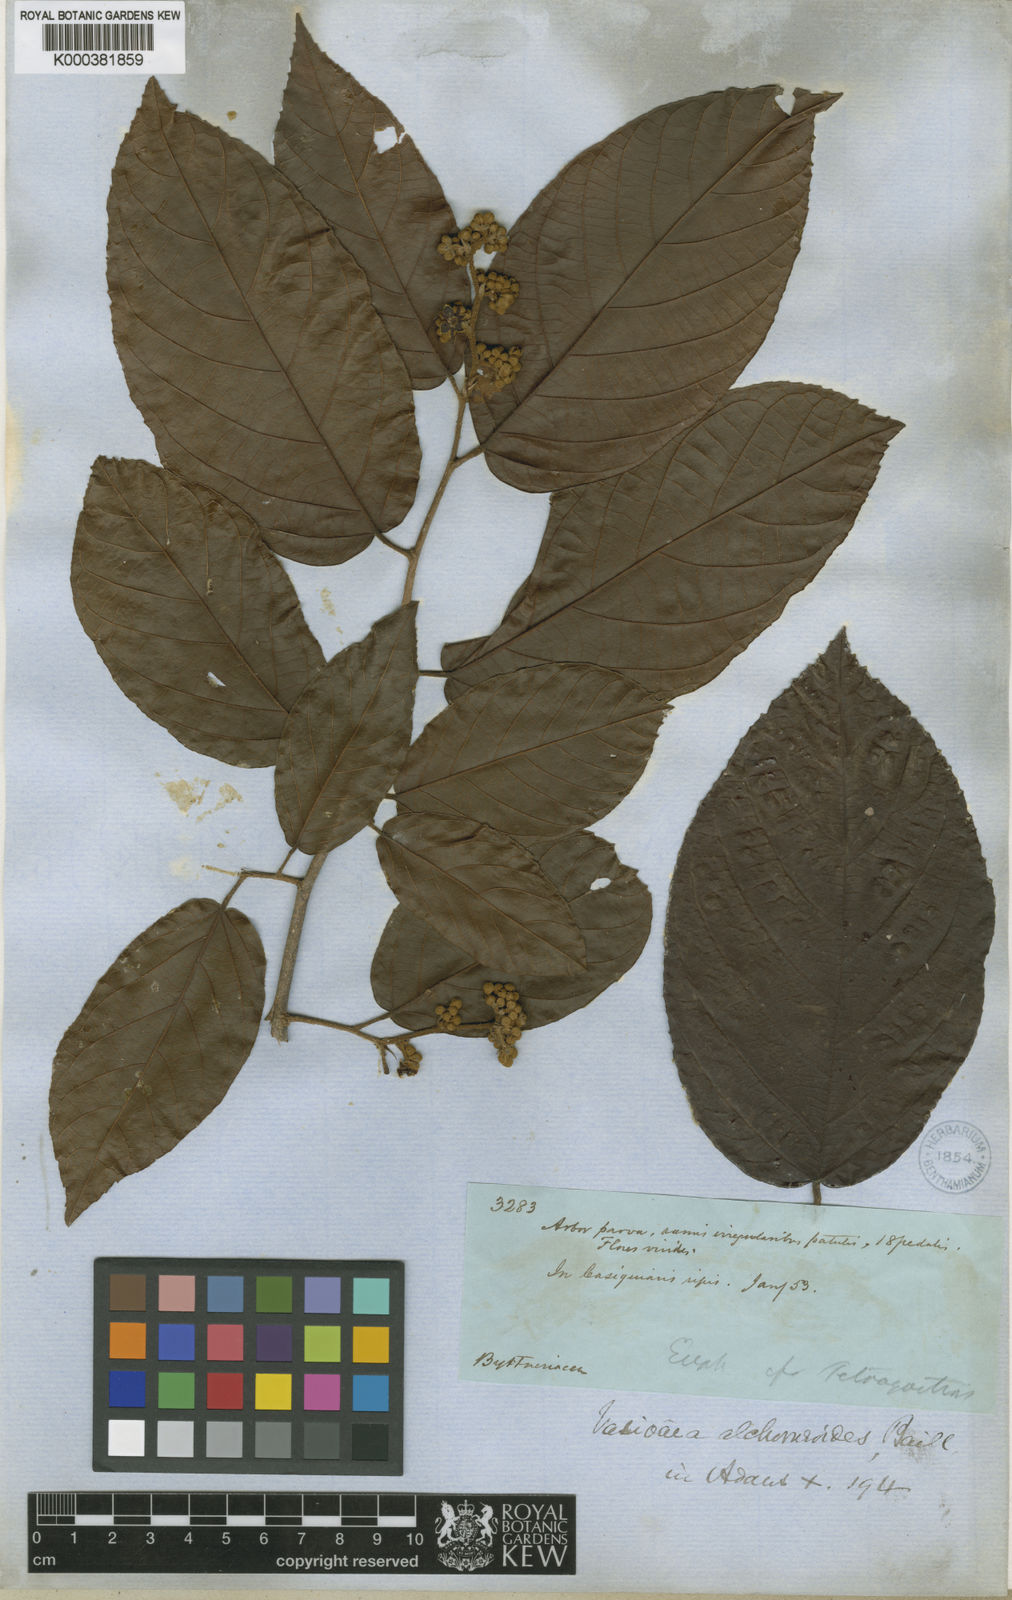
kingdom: Plantae
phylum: Tracheophyta
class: Magnoliopsida
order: Malvales
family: Malvaceae
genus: Vasivaea
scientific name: Vasivaea alchorneoides
